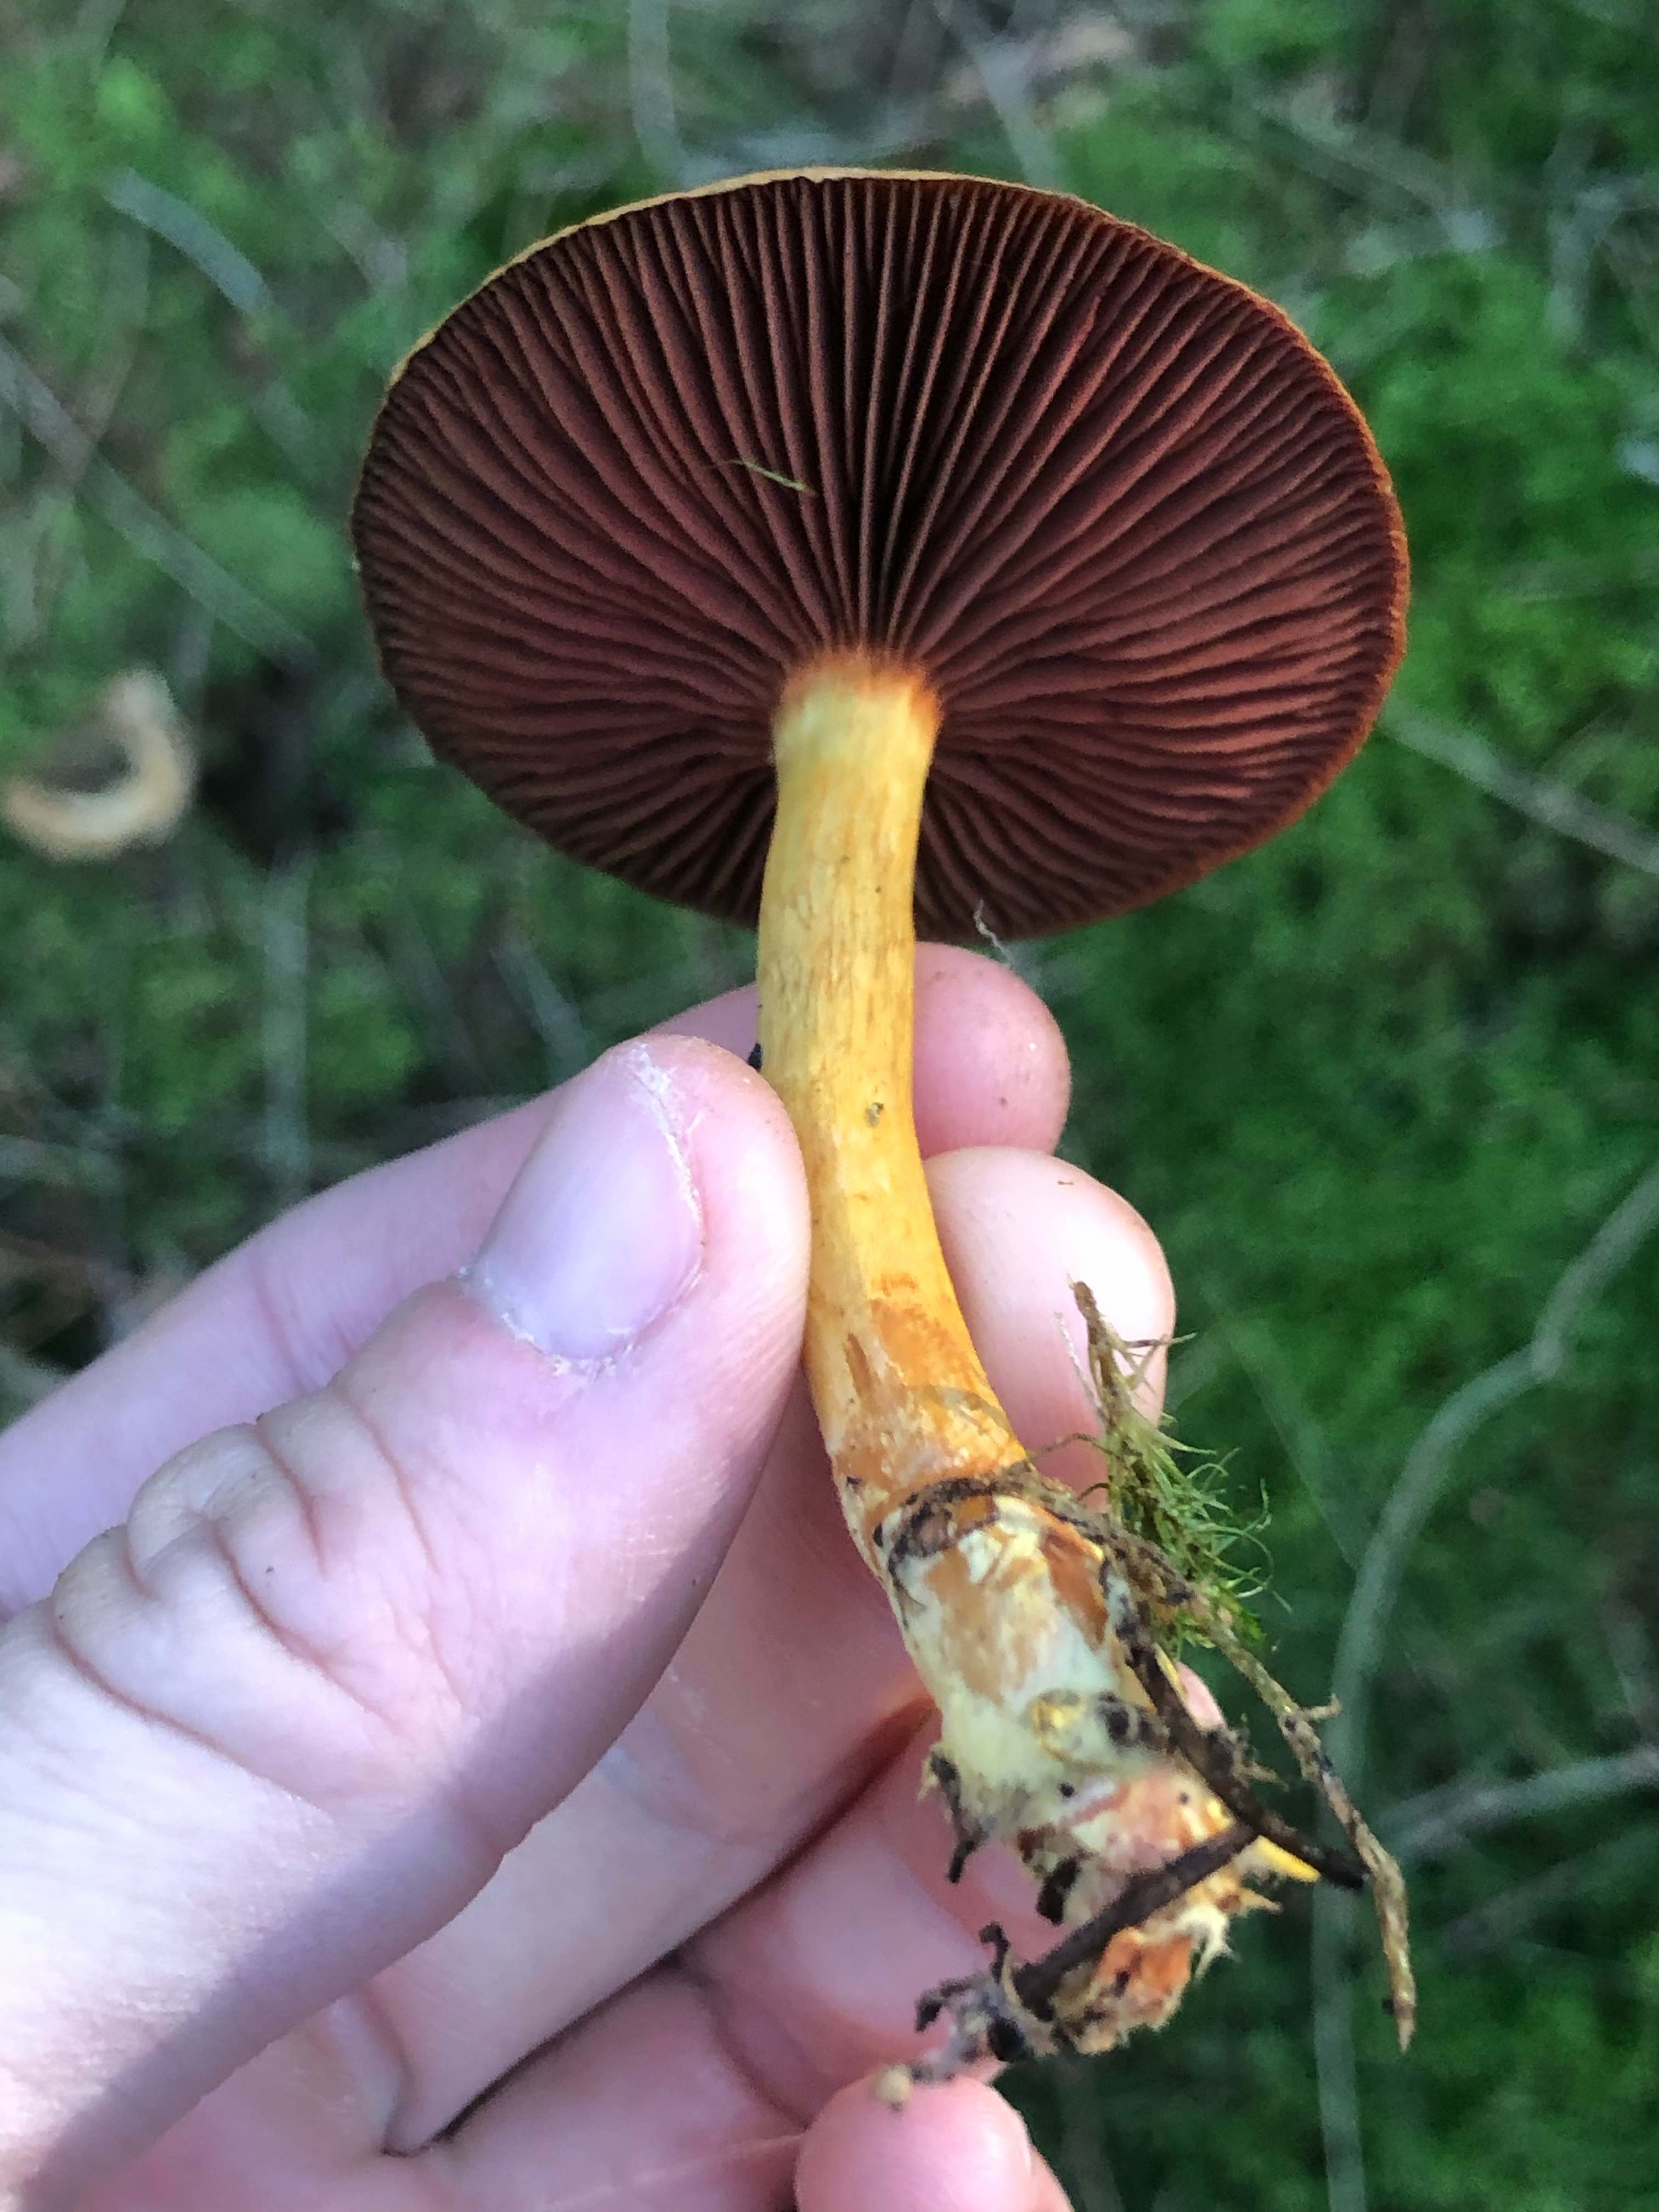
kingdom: Fungi
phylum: Basidiomycota
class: Agaricomycetes
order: Agaricales
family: Cortinariaceae
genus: Cortinarius
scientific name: Cortinarius
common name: cinnoberbladet slørhat
